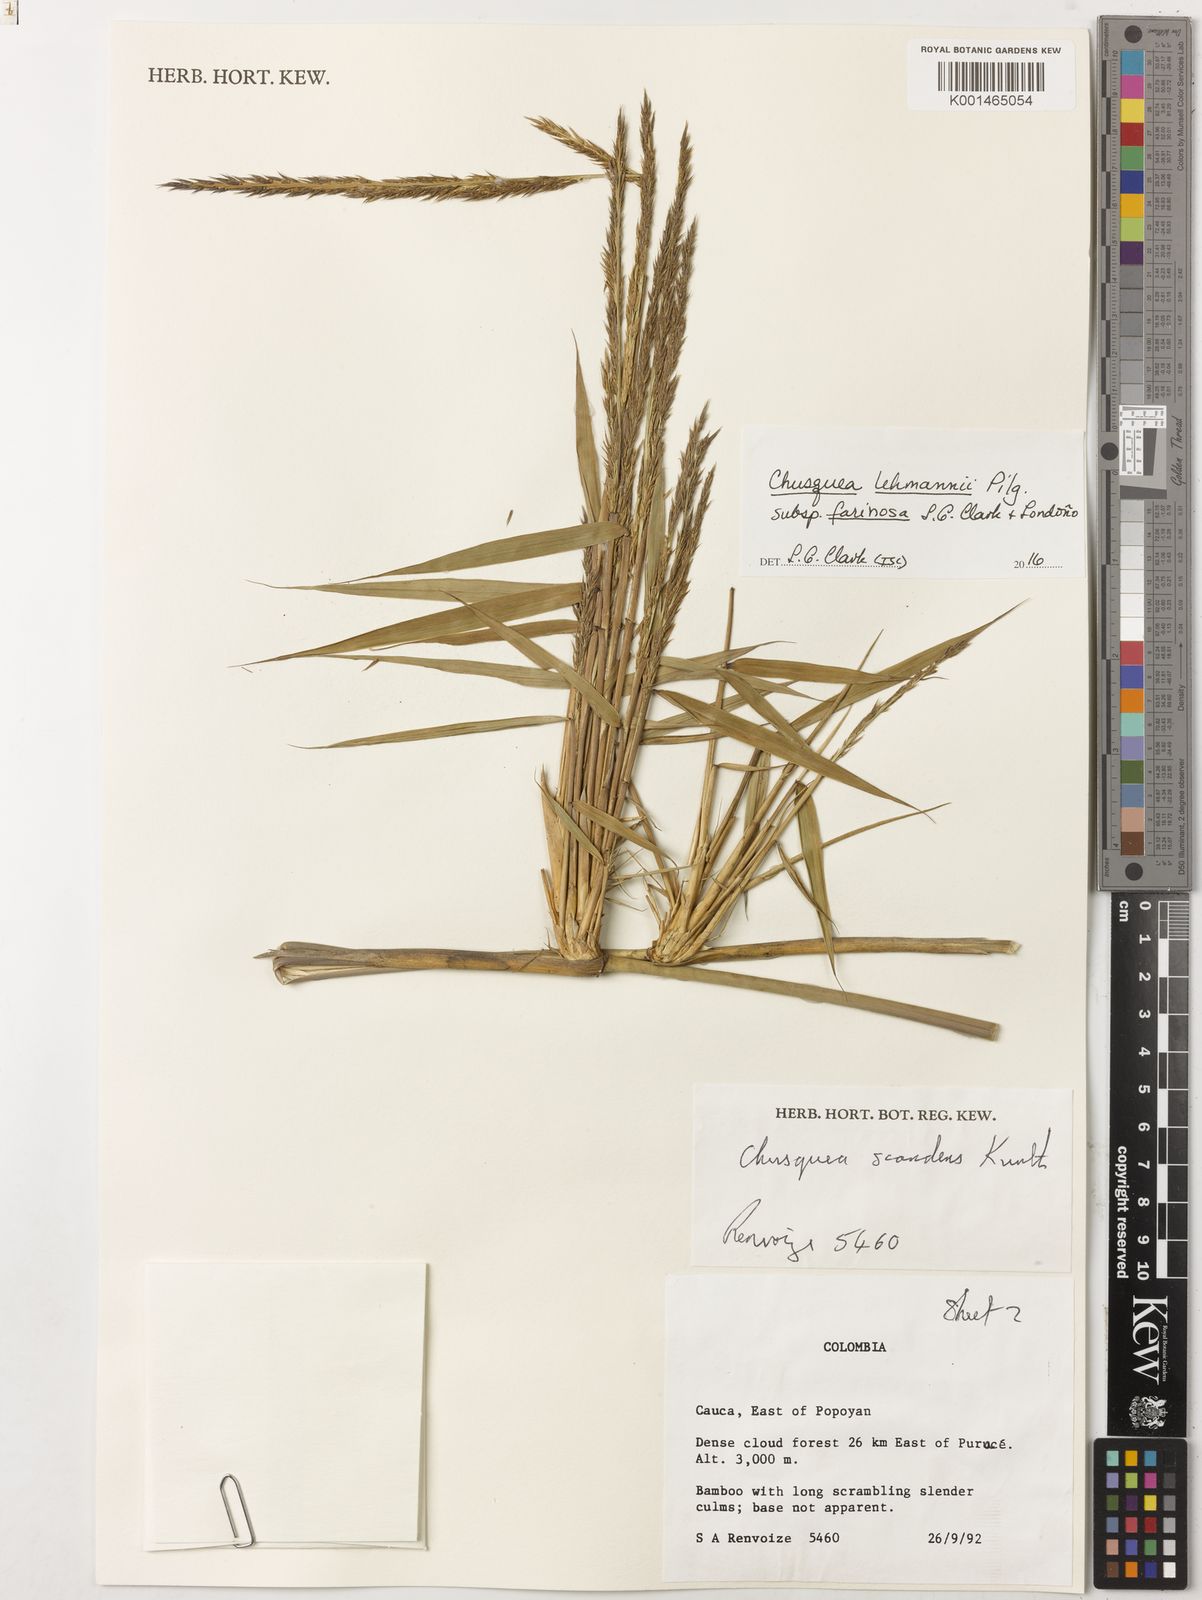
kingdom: Plantae
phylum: Tracheophyta
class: Liliopsida
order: Poales
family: Poaceae
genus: Chusquea
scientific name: Chusquea lehmannii
